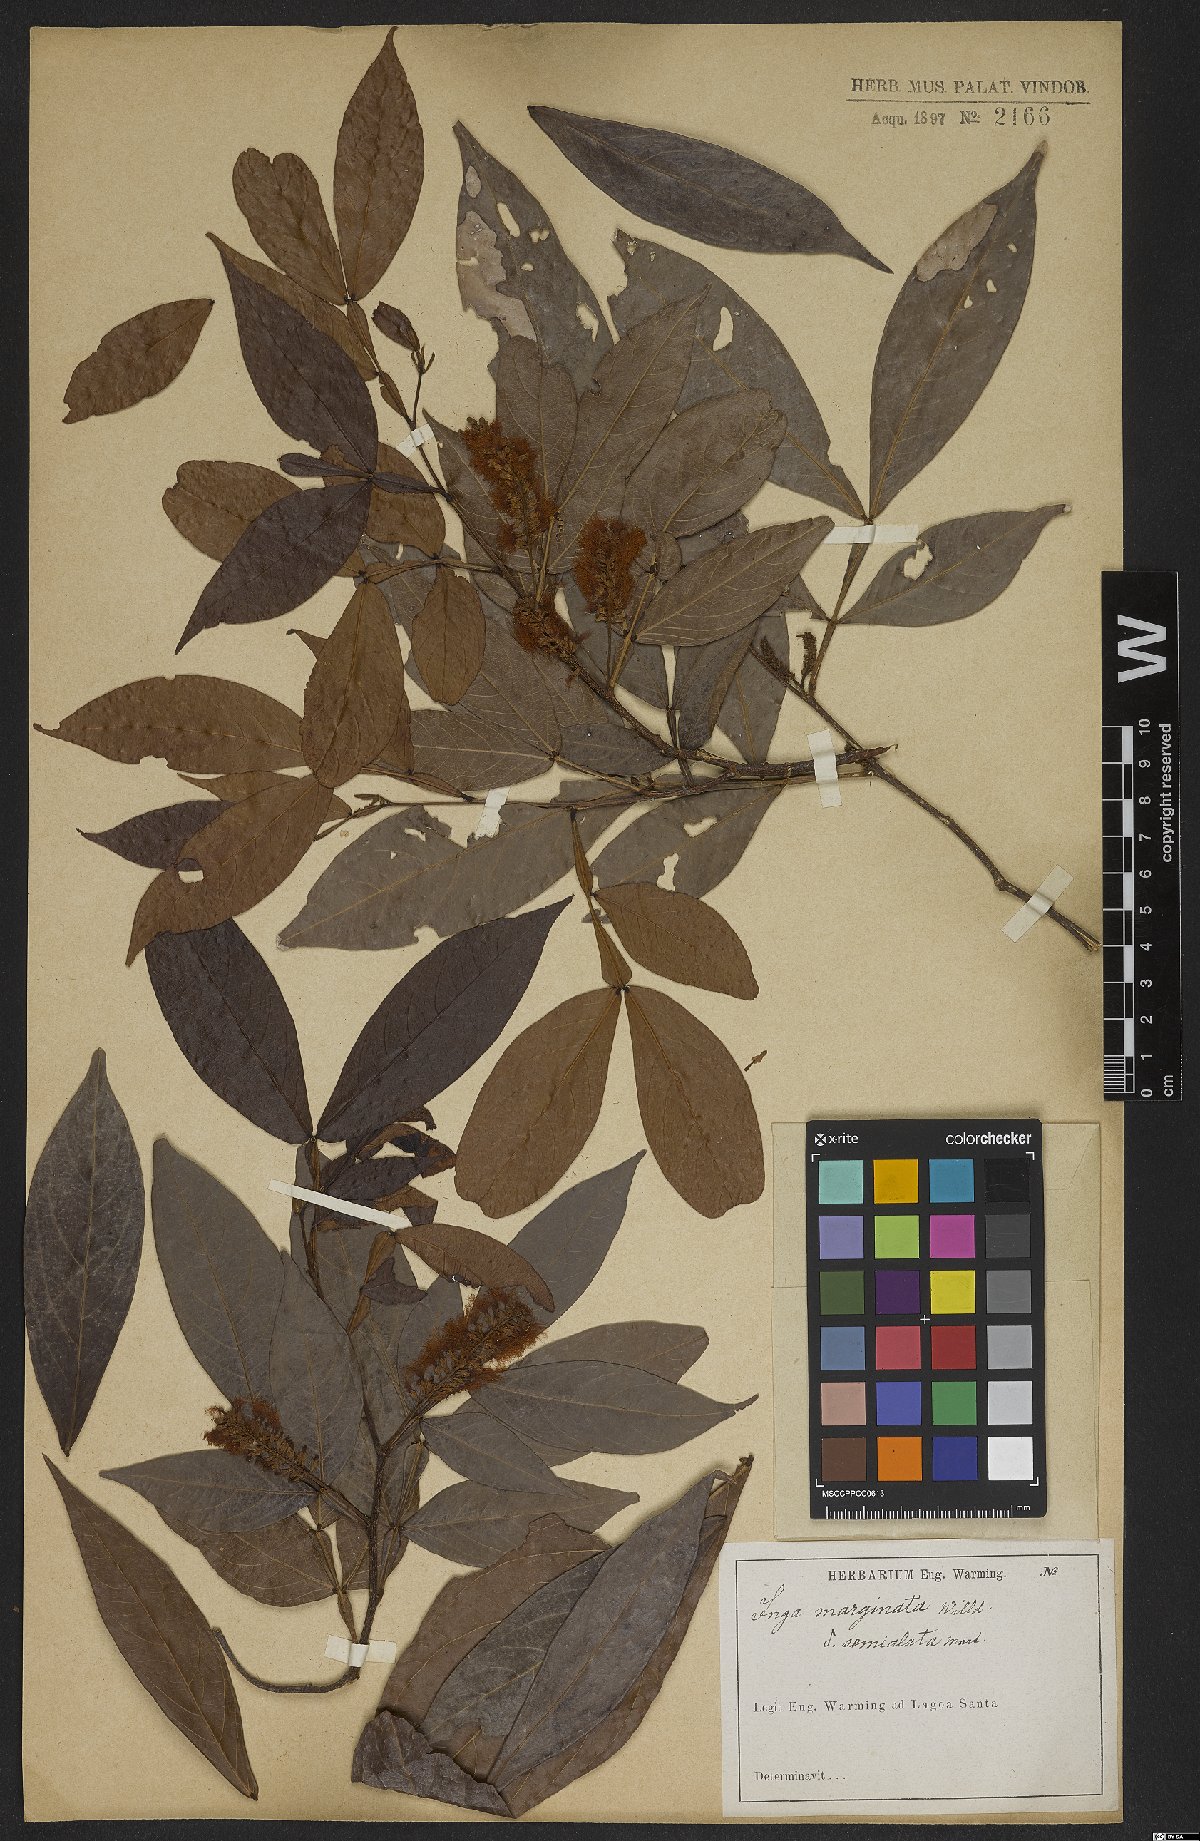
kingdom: Plantae
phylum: Tracheophyta
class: Magnoliopsida
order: Fabales
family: Fabaceae
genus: Inga
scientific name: Inga marginata
